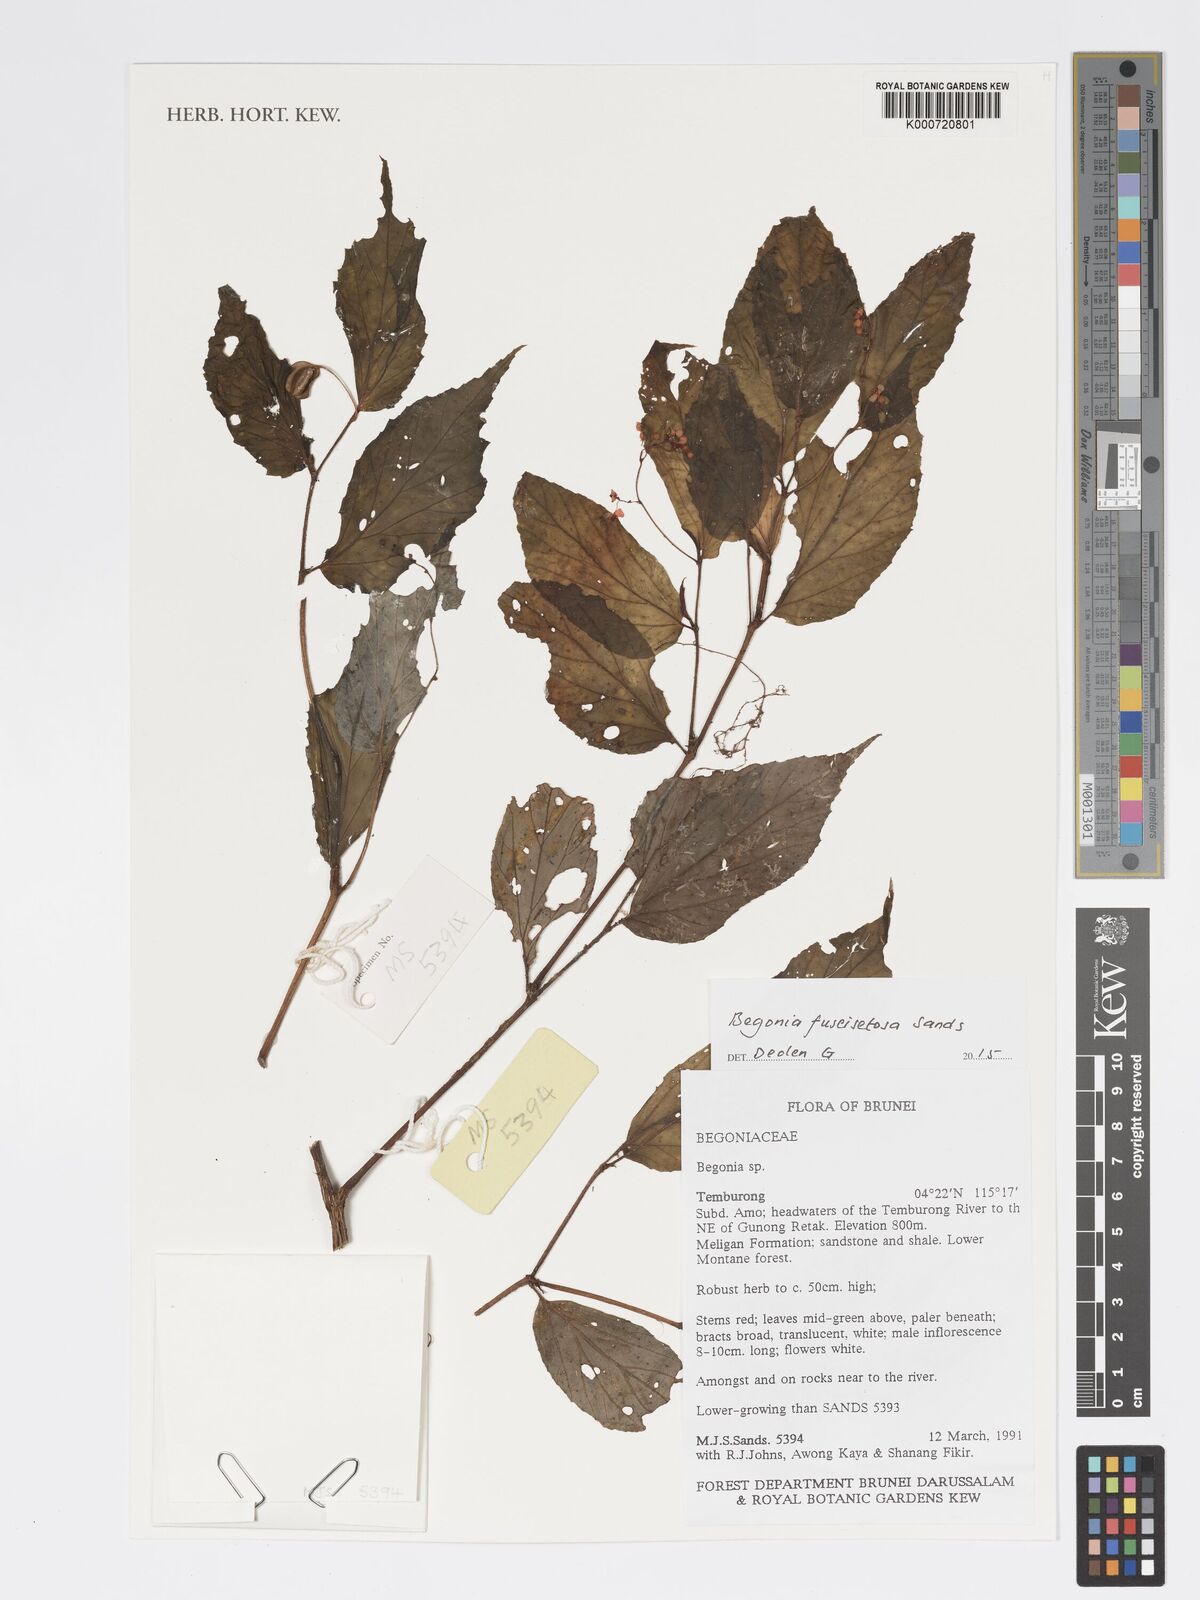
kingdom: Plantae
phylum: Tracheophyta
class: Magnoliopsida
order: Cucurbitales
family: Begoniaceae
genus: Begonia
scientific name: Begonia fuscisetosa
